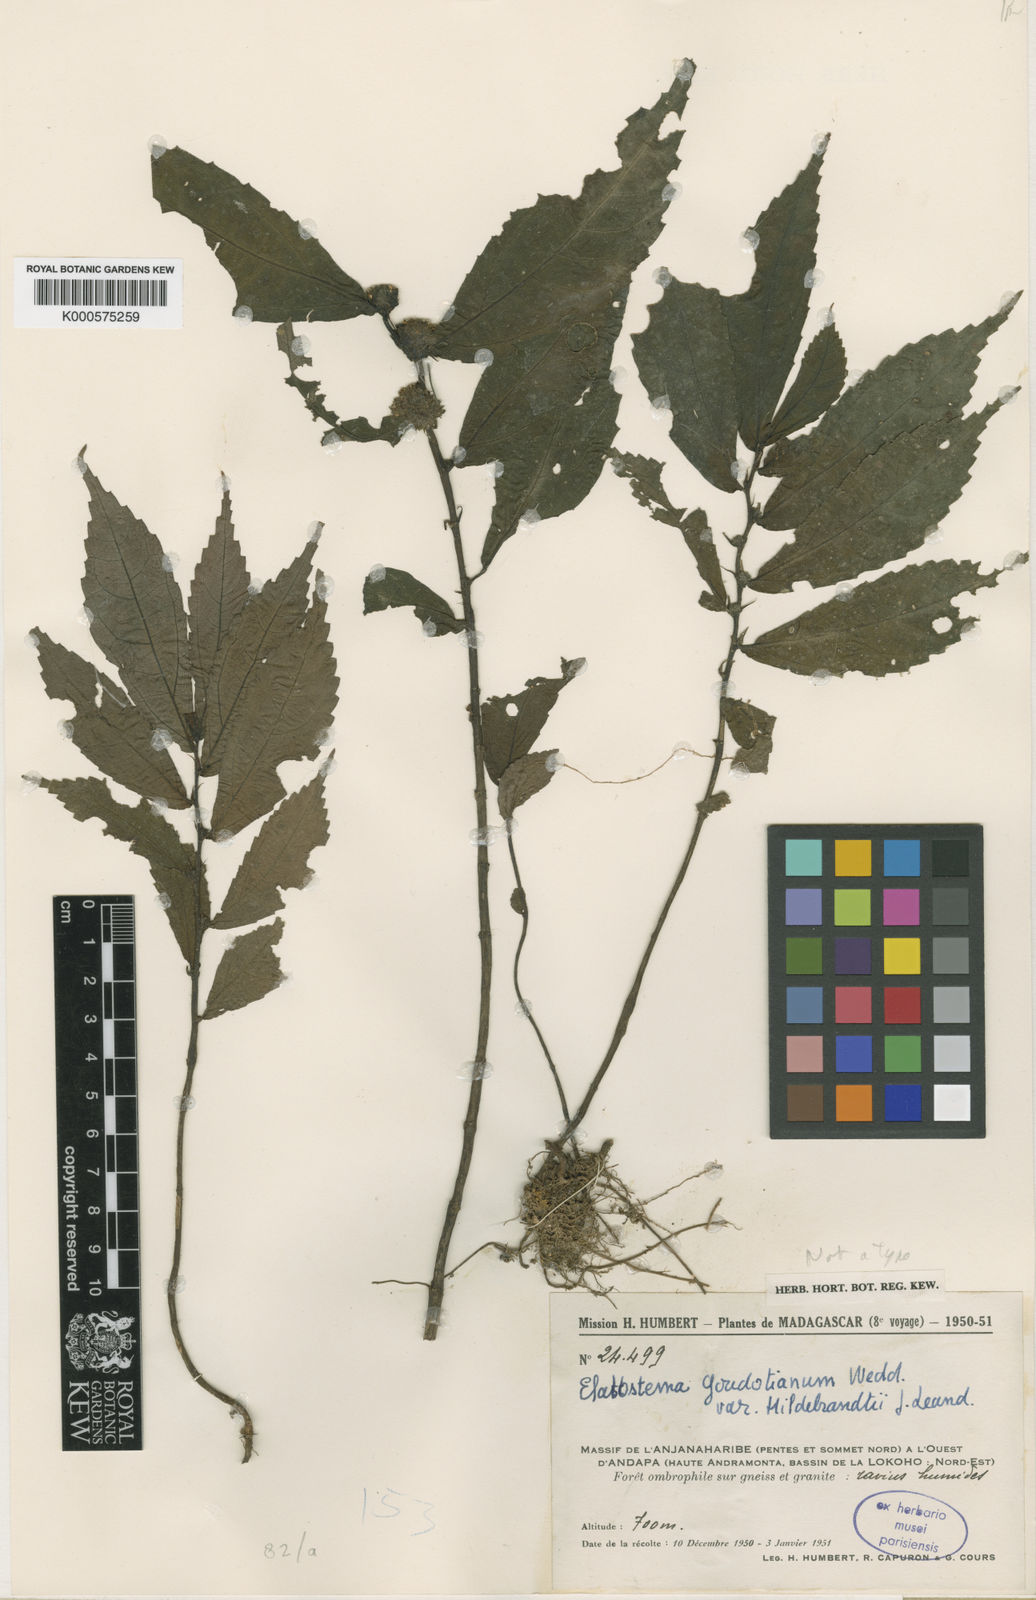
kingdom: Plantae
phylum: Tracheophyta
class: Magnoliopsida
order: Rosales
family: Urticaceae
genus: Elatostema
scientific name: Elatostema goudotianum
